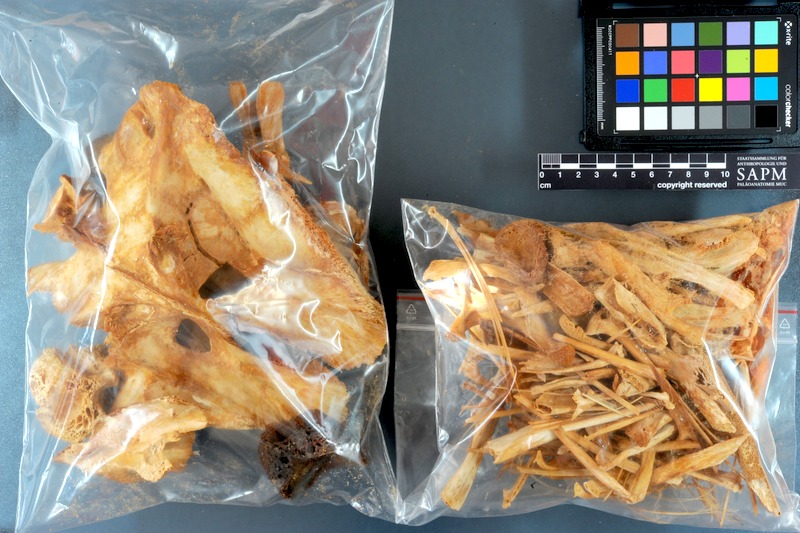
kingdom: Animalia
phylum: Chordata
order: Perciformes
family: Scombridae
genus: Thunnus
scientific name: Thunnus thynnus
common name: Bluefin tuna
